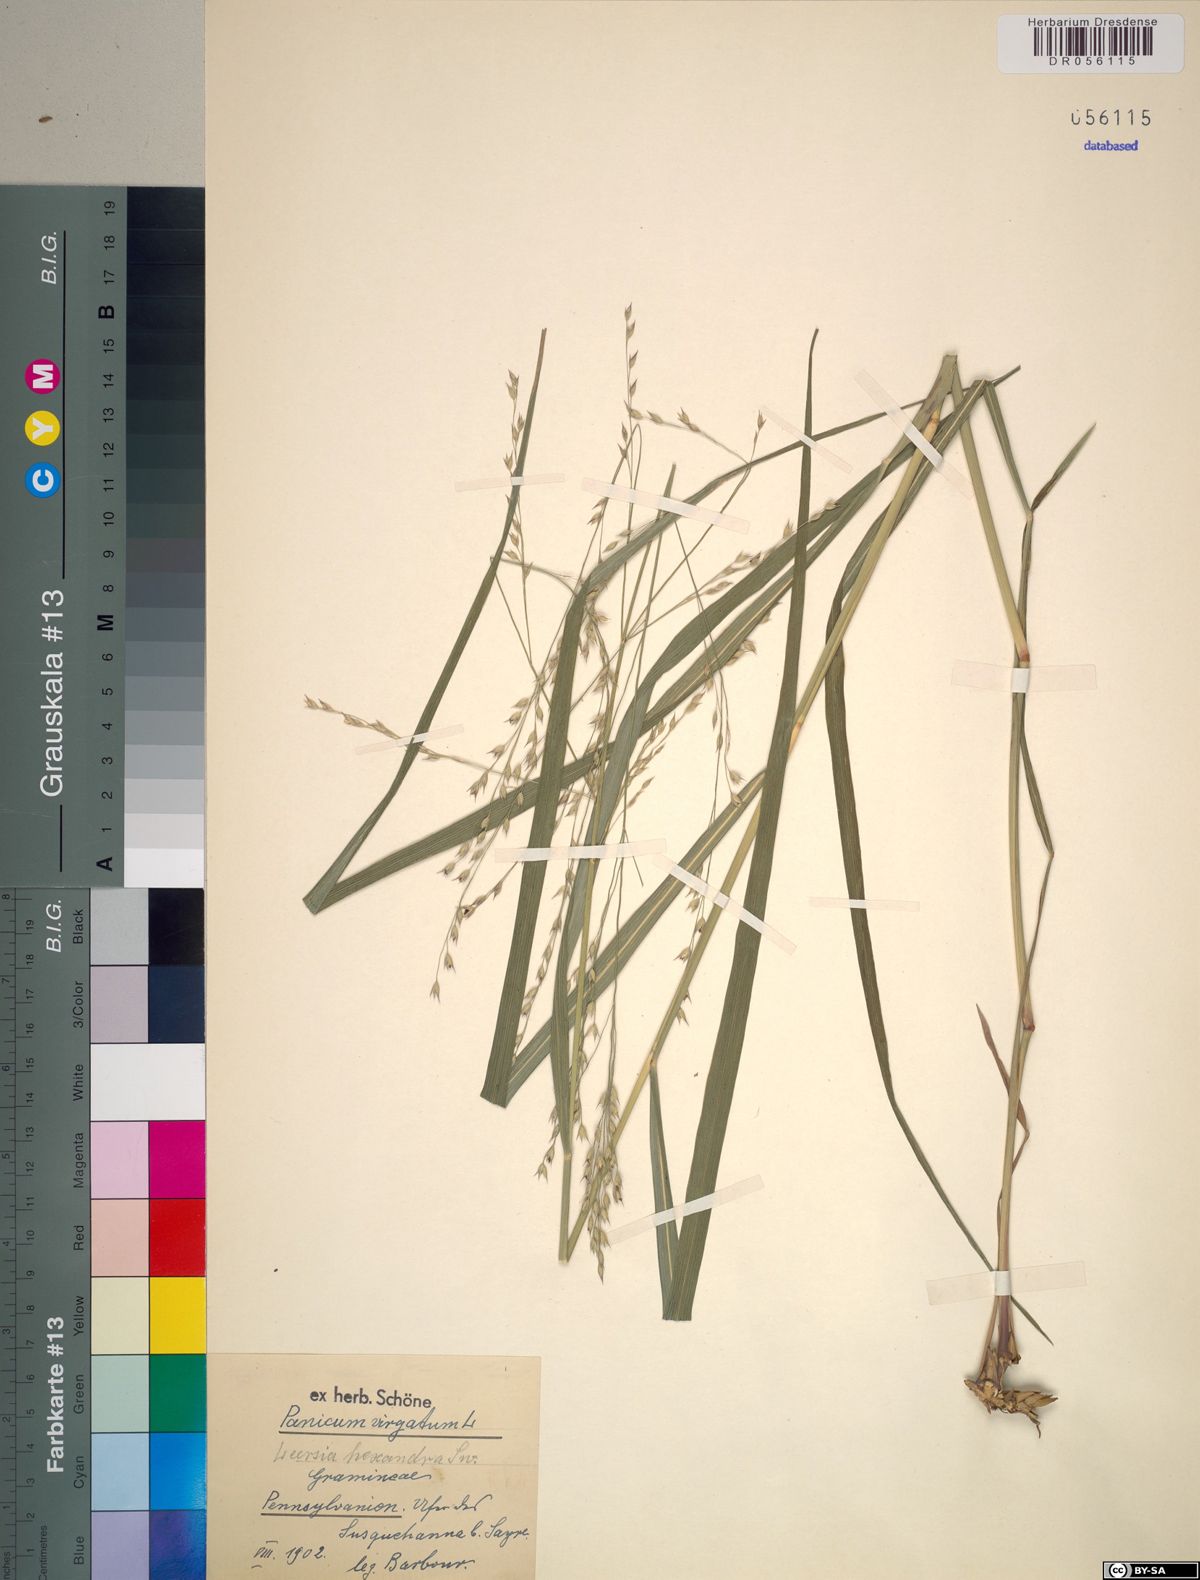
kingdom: Plantae
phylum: Tracheophyta
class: Liliopsida
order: Poales
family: Poaceae
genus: Leersia
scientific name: Leersia hexandra
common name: Southern cut grass
